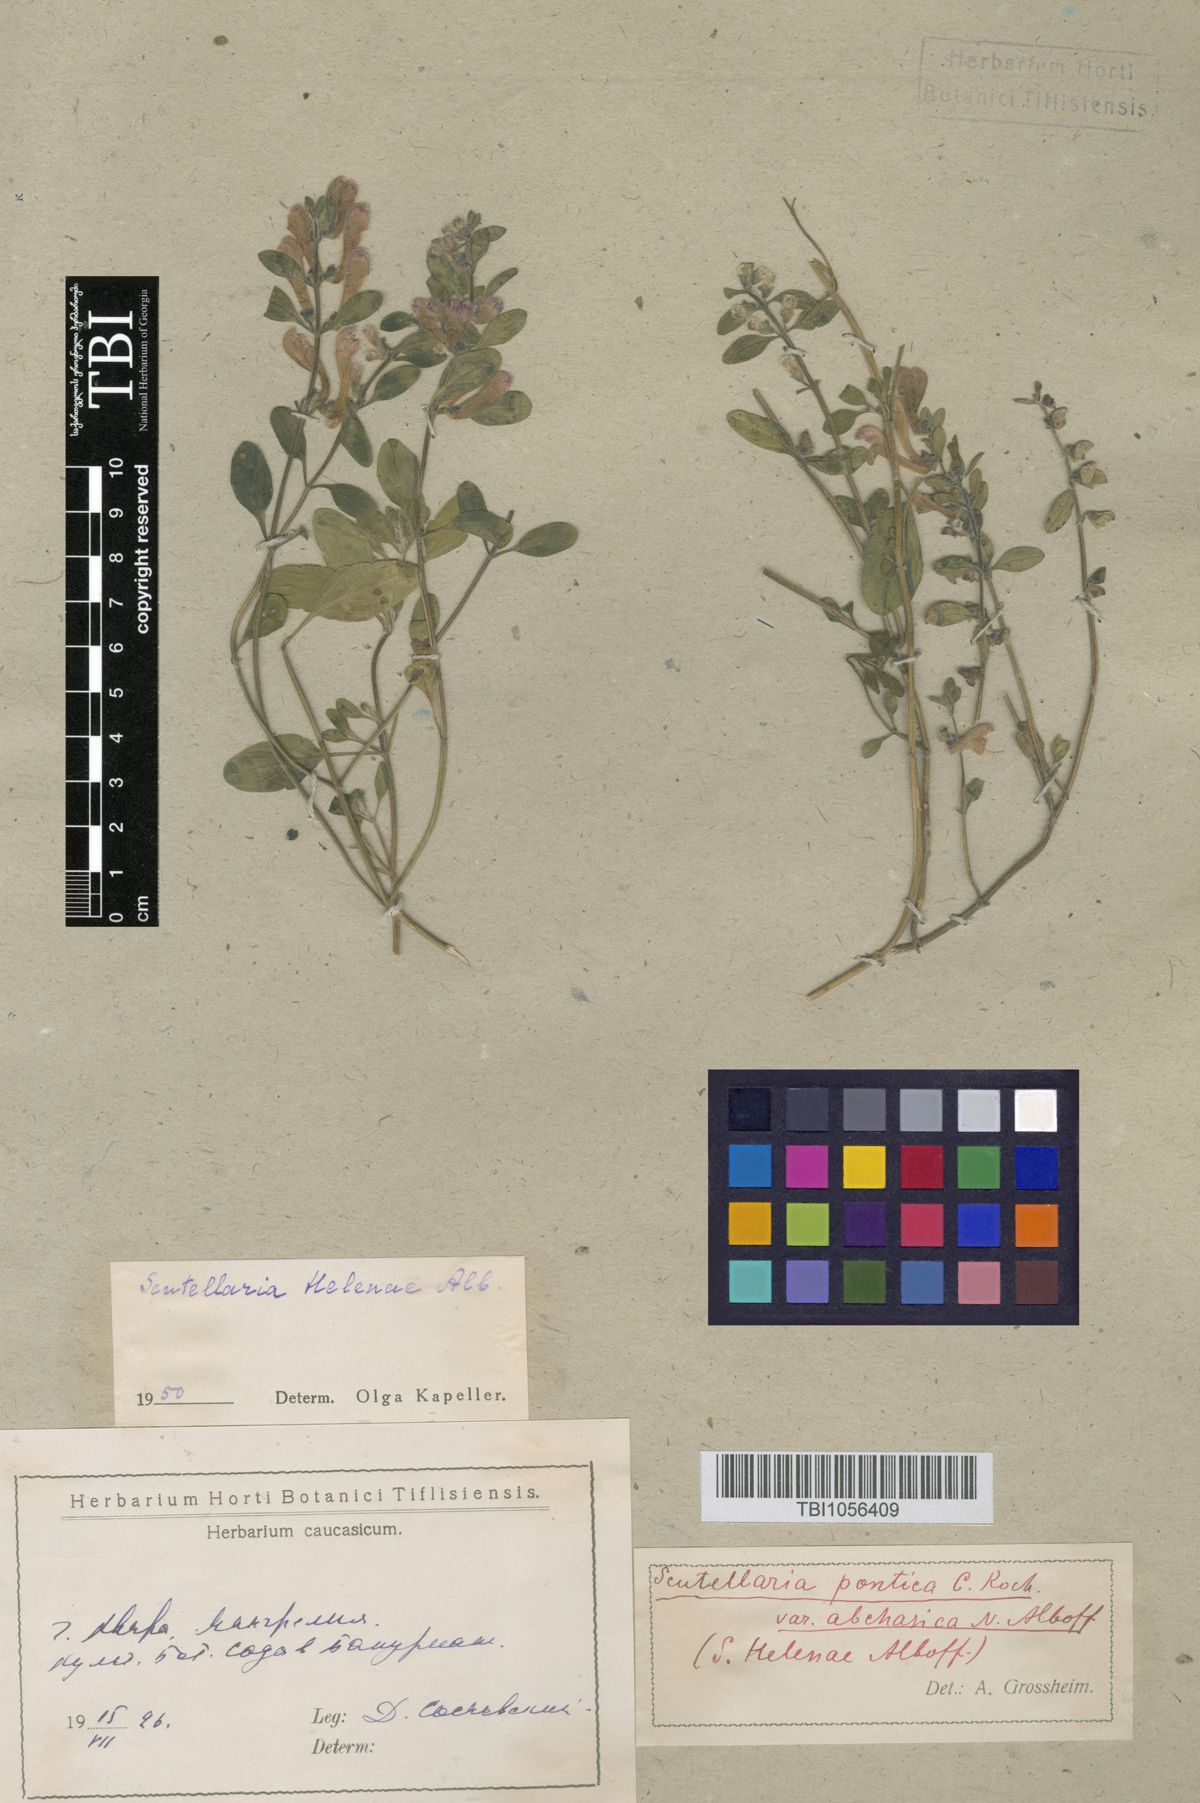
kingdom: Plantae
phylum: Tracheophyta
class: Magnoliopsida
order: Lamiales
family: Lamiaceae
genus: Scutellaria
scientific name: Scutellaria helenae
